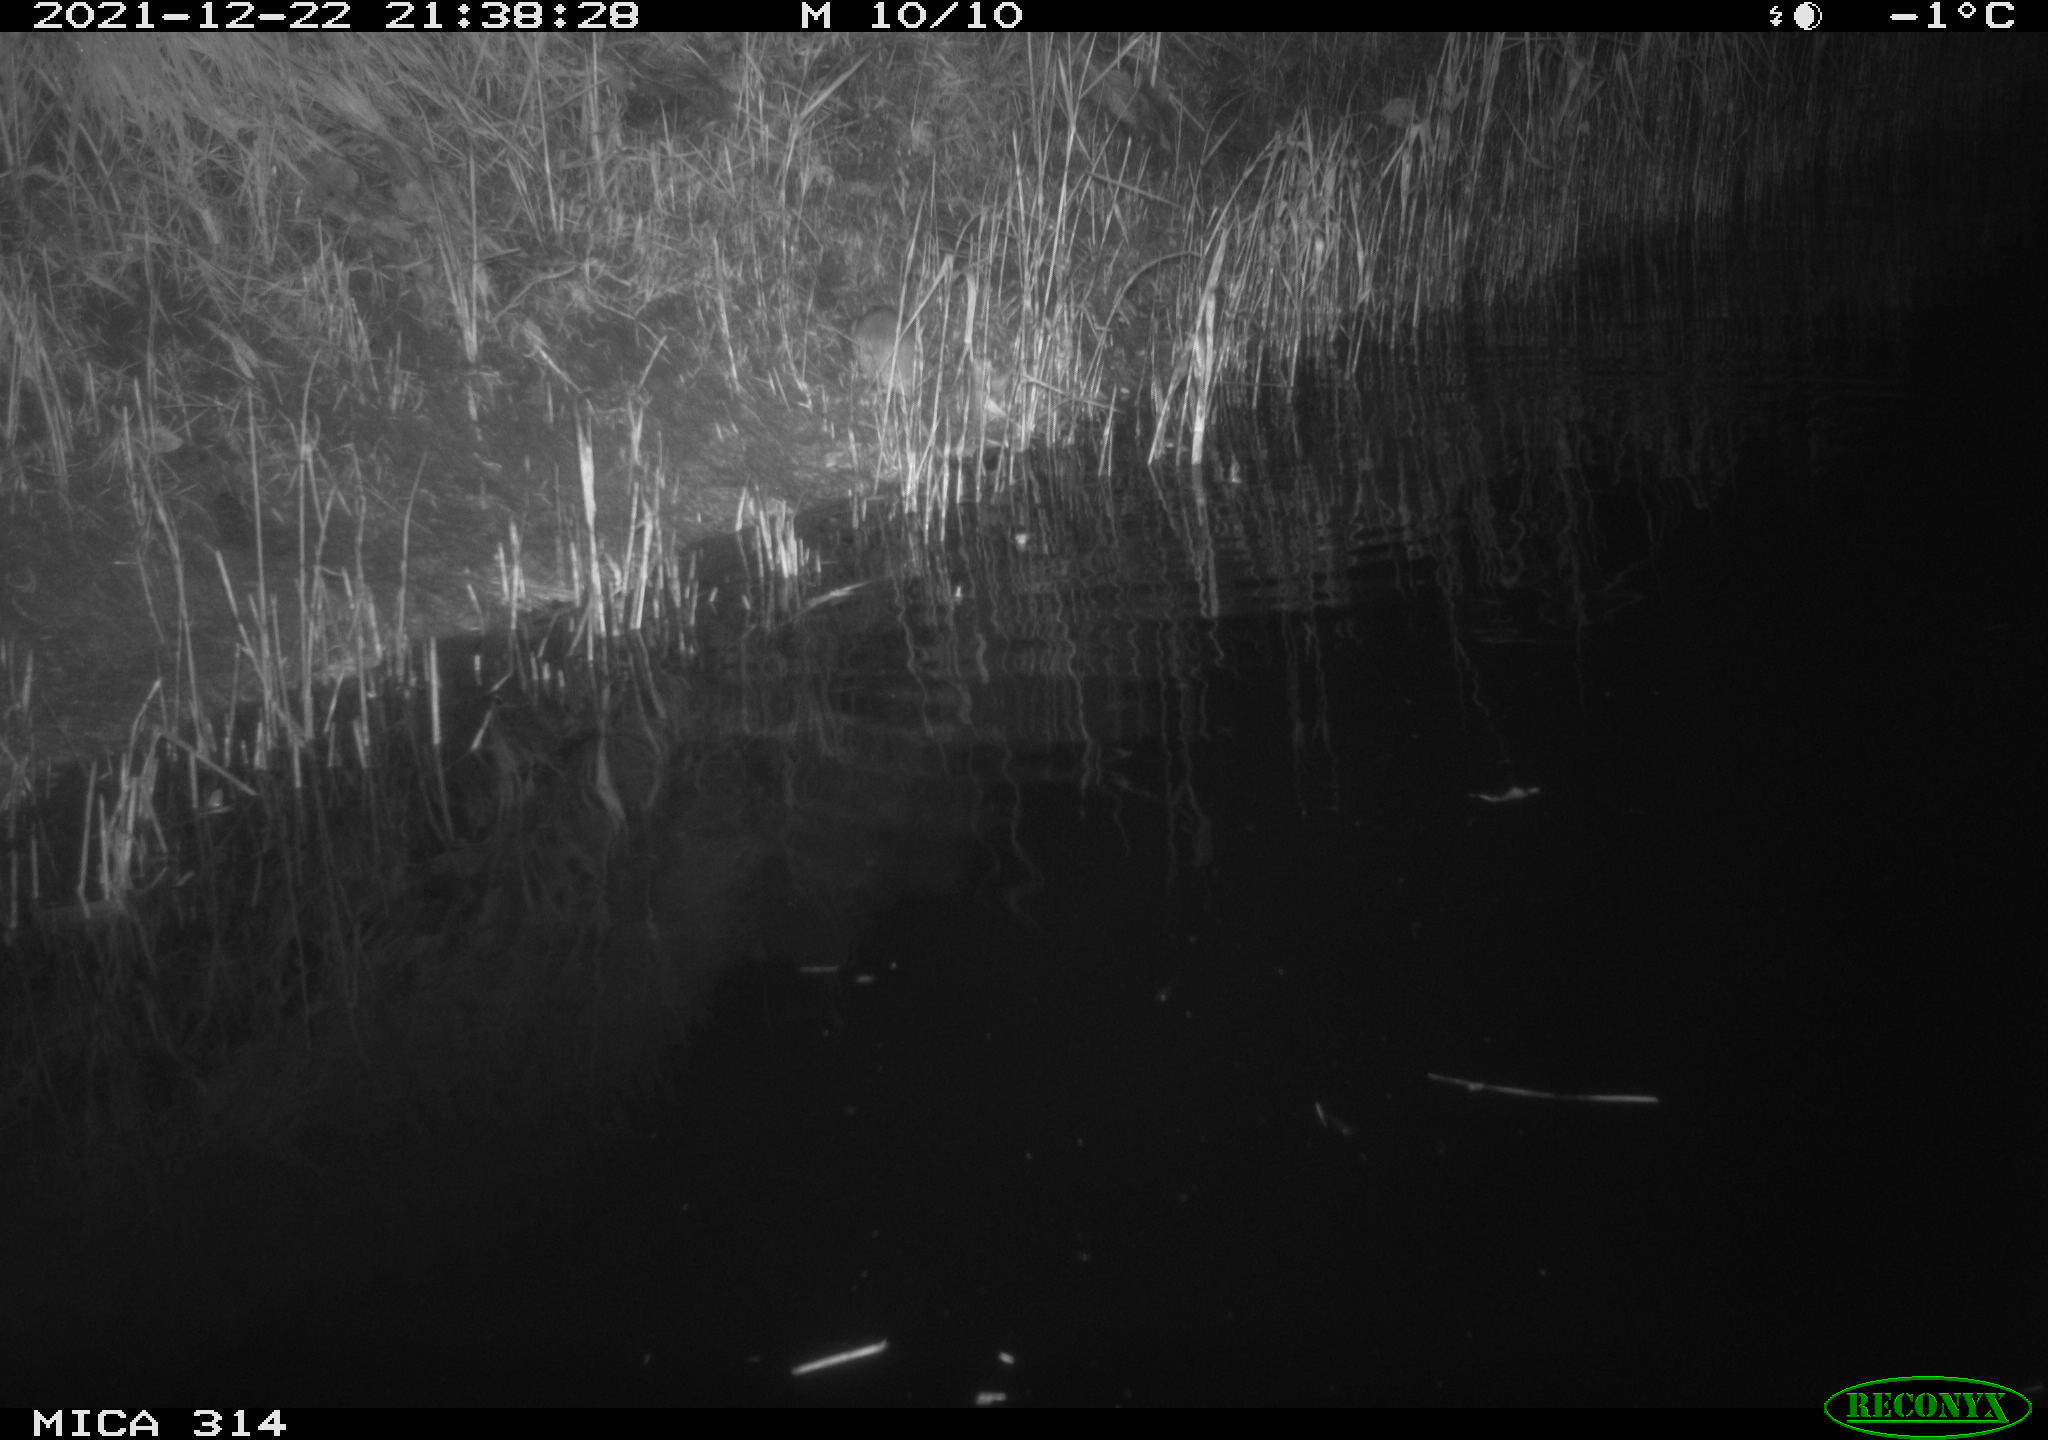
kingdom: Animalia
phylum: Chordata
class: Mammalia
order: Rodentia
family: Muridae
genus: Rattus
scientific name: Rattus norvegicus
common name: Brown rat
